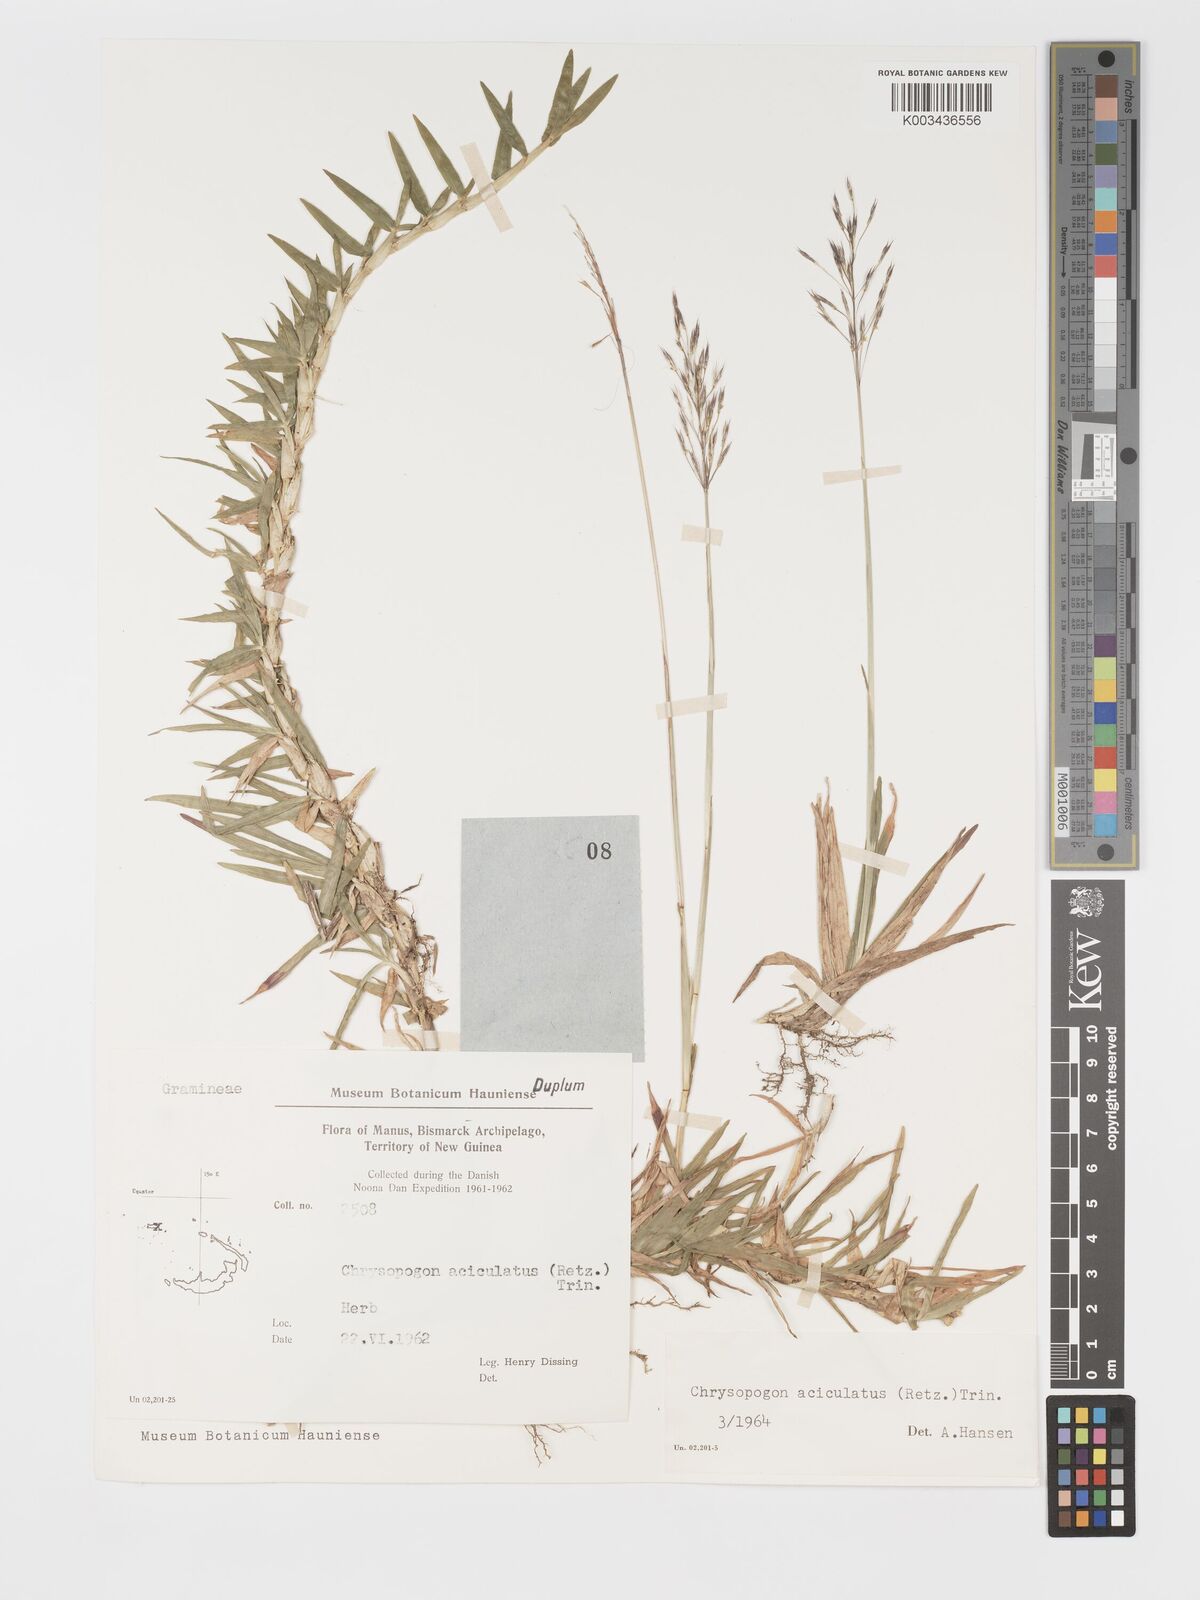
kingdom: Plantae
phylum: Tracheophyta
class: Liliopsida
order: Poales
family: Poaceae
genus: Chrysopogon
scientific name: Chrysopogon aciculatus
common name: Pilipiliula
